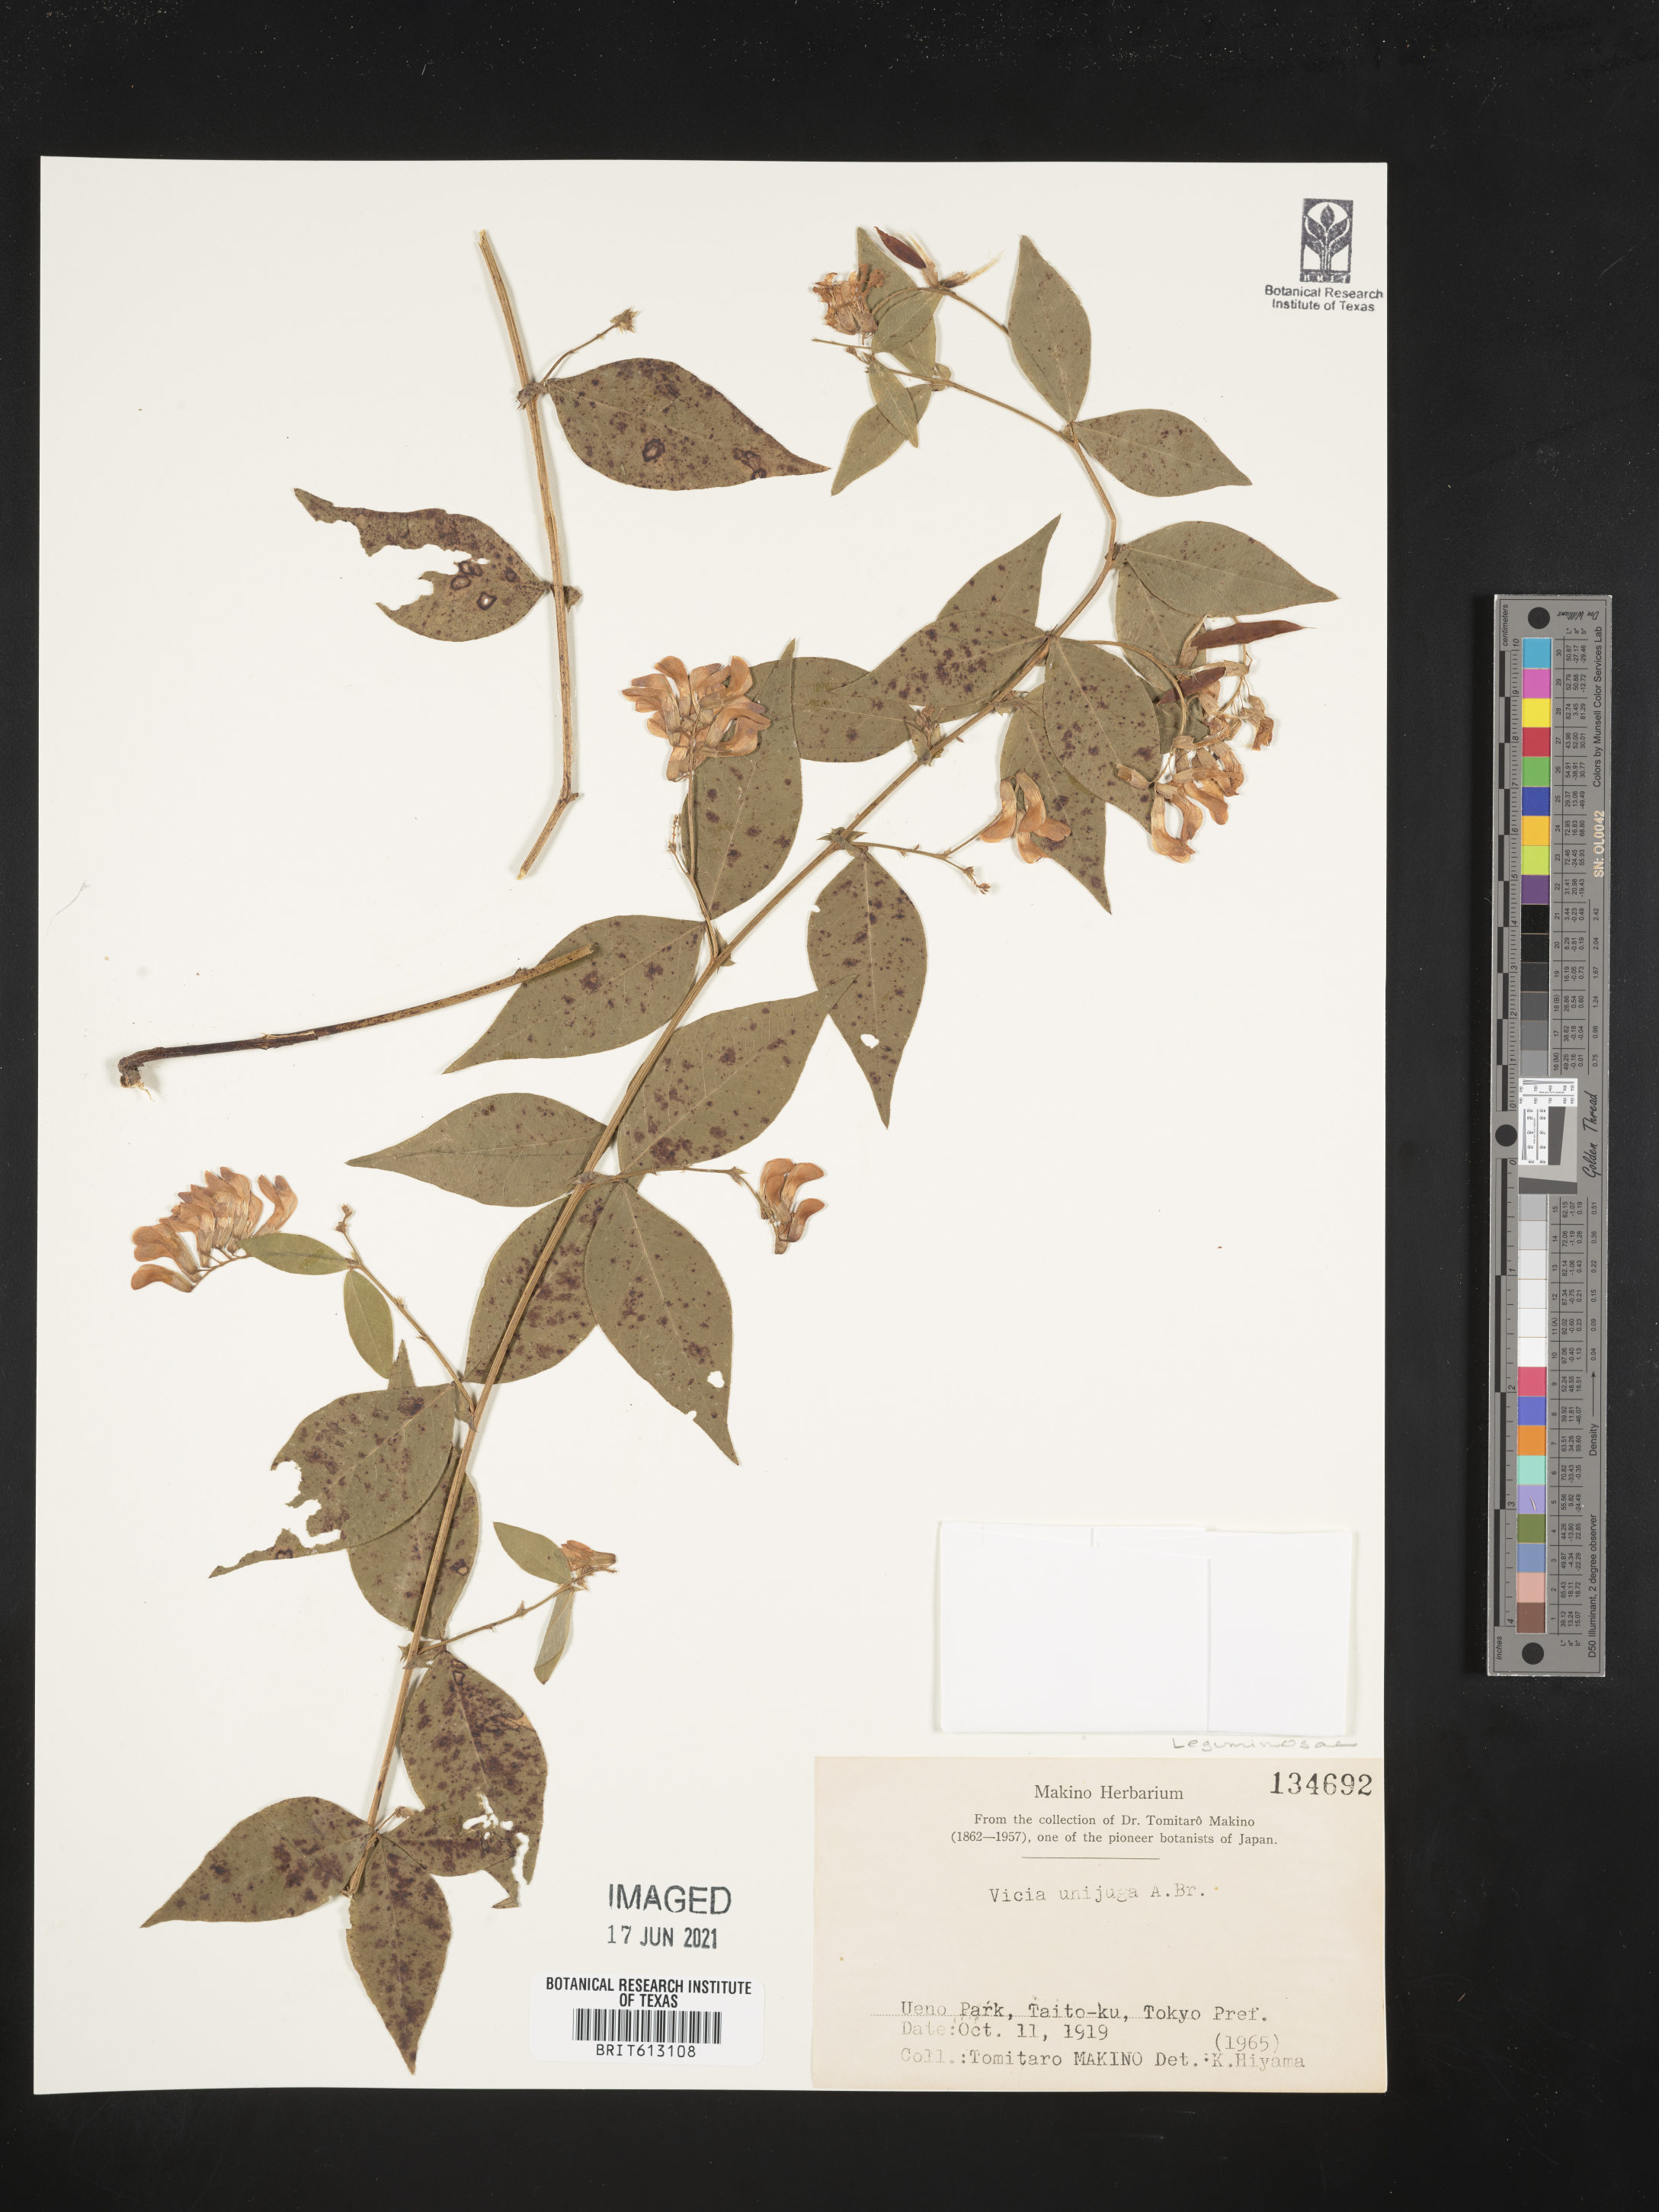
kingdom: Plantae
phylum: Tracheophyta
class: Magnoliopsida
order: Fabales
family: Fabaceae
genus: Vicia
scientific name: Vicia unijuga
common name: Two-leaf vetch
